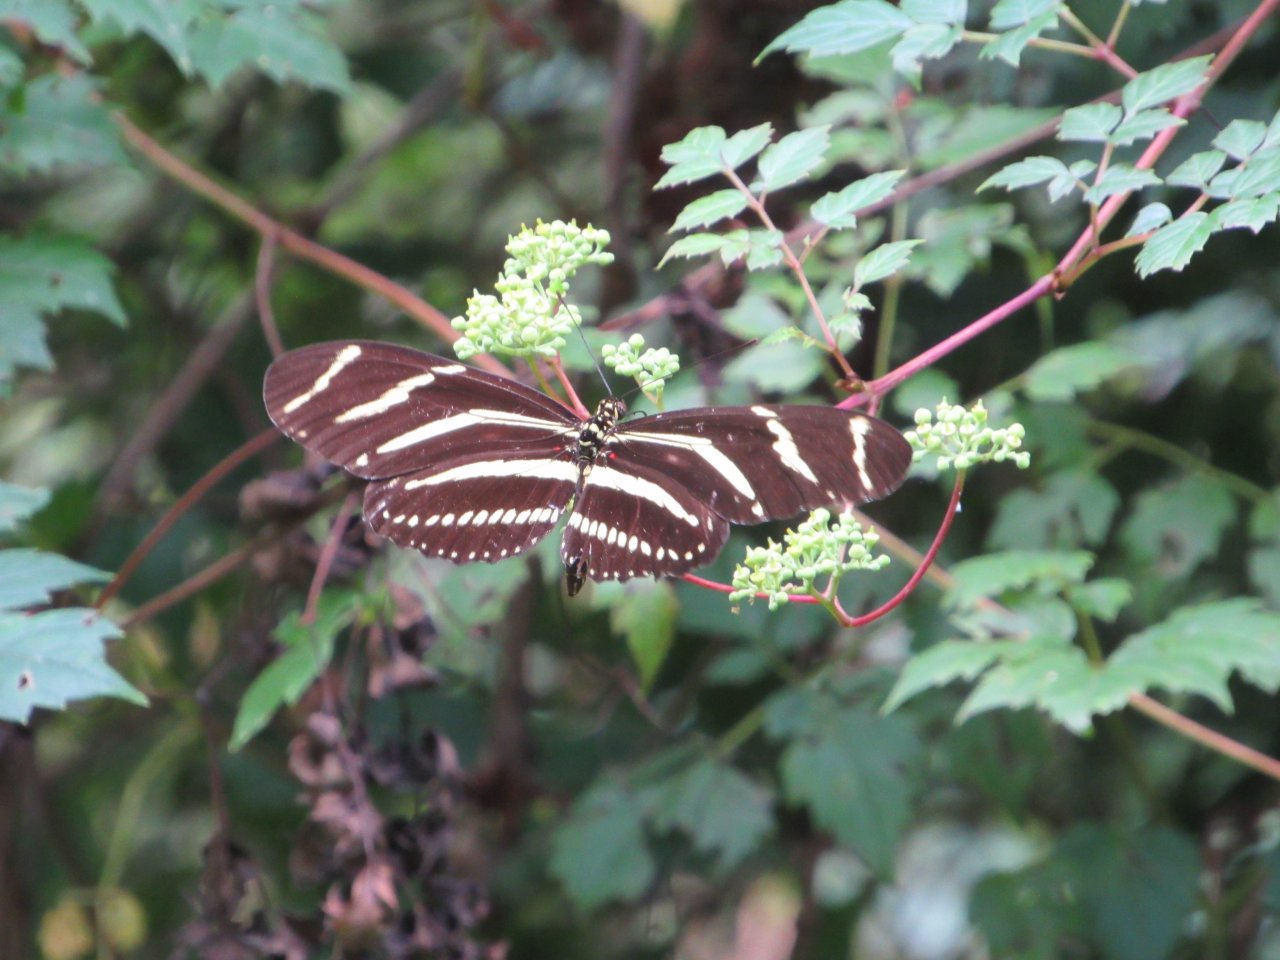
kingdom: Animalia
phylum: Arthropoda
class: Insecta
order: Lepidoptera
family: Nymphalidae
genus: Heliconius
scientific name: Heliconius charithonia
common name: Zebra Longwing
